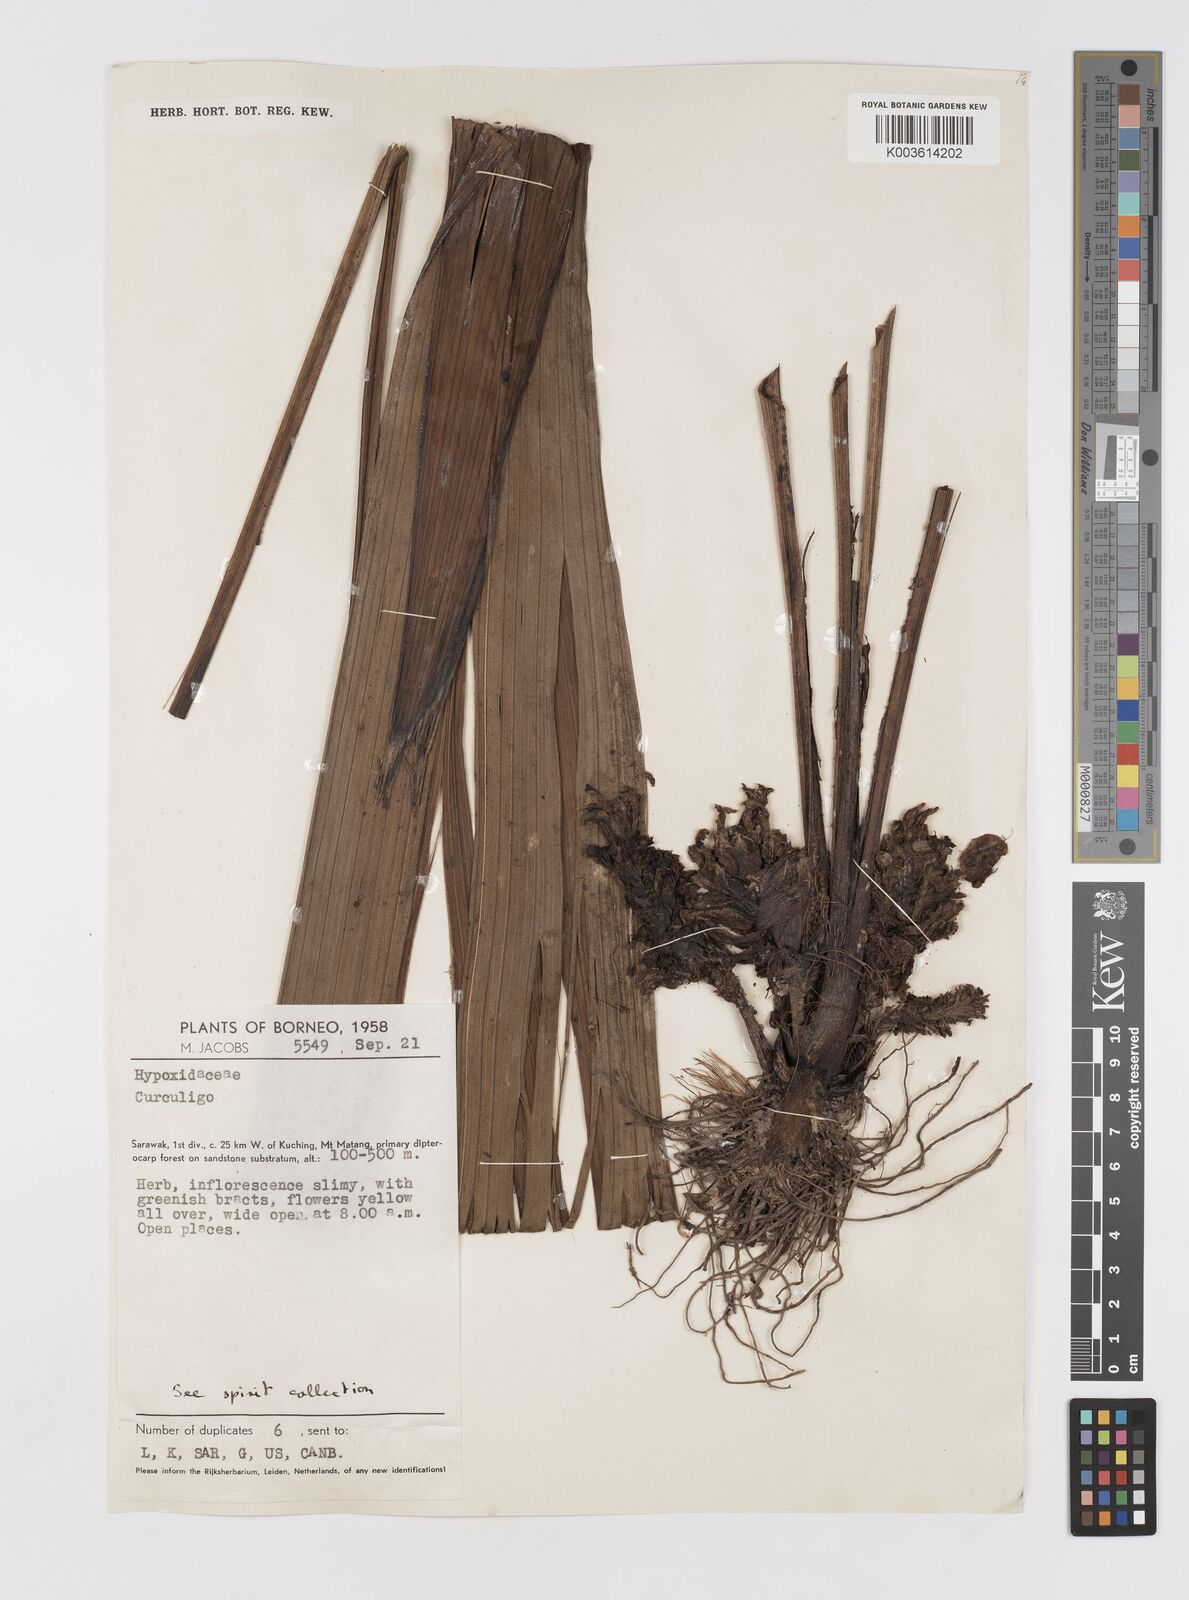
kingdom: Plantae
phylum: Tracheophyta
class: Liliopsida
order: Asparagales
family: Hypoxidaceae
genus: Curculigo
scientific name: Curculigo
